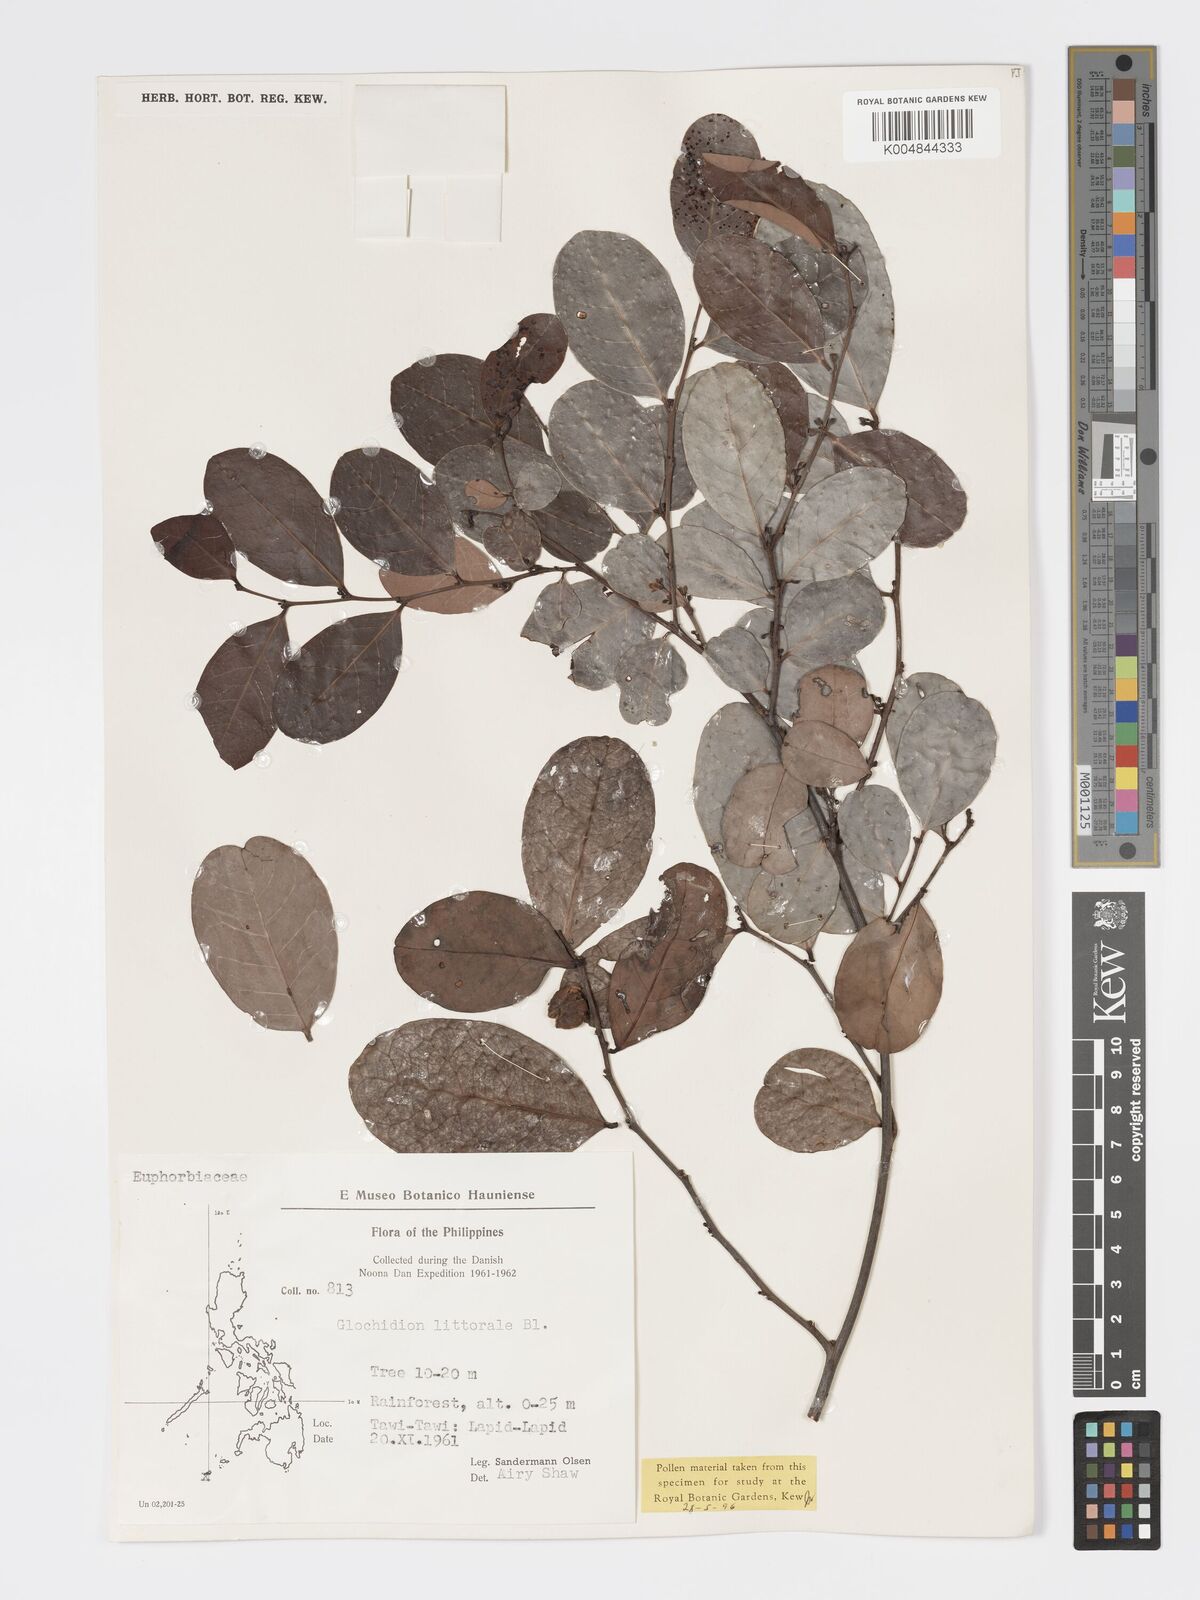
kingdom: Plantae
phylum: Tracheophyta
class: Magnoliopsida
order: Malpighiales
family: Phyllanthaceae
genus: Glochidion
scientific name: Glochidion
